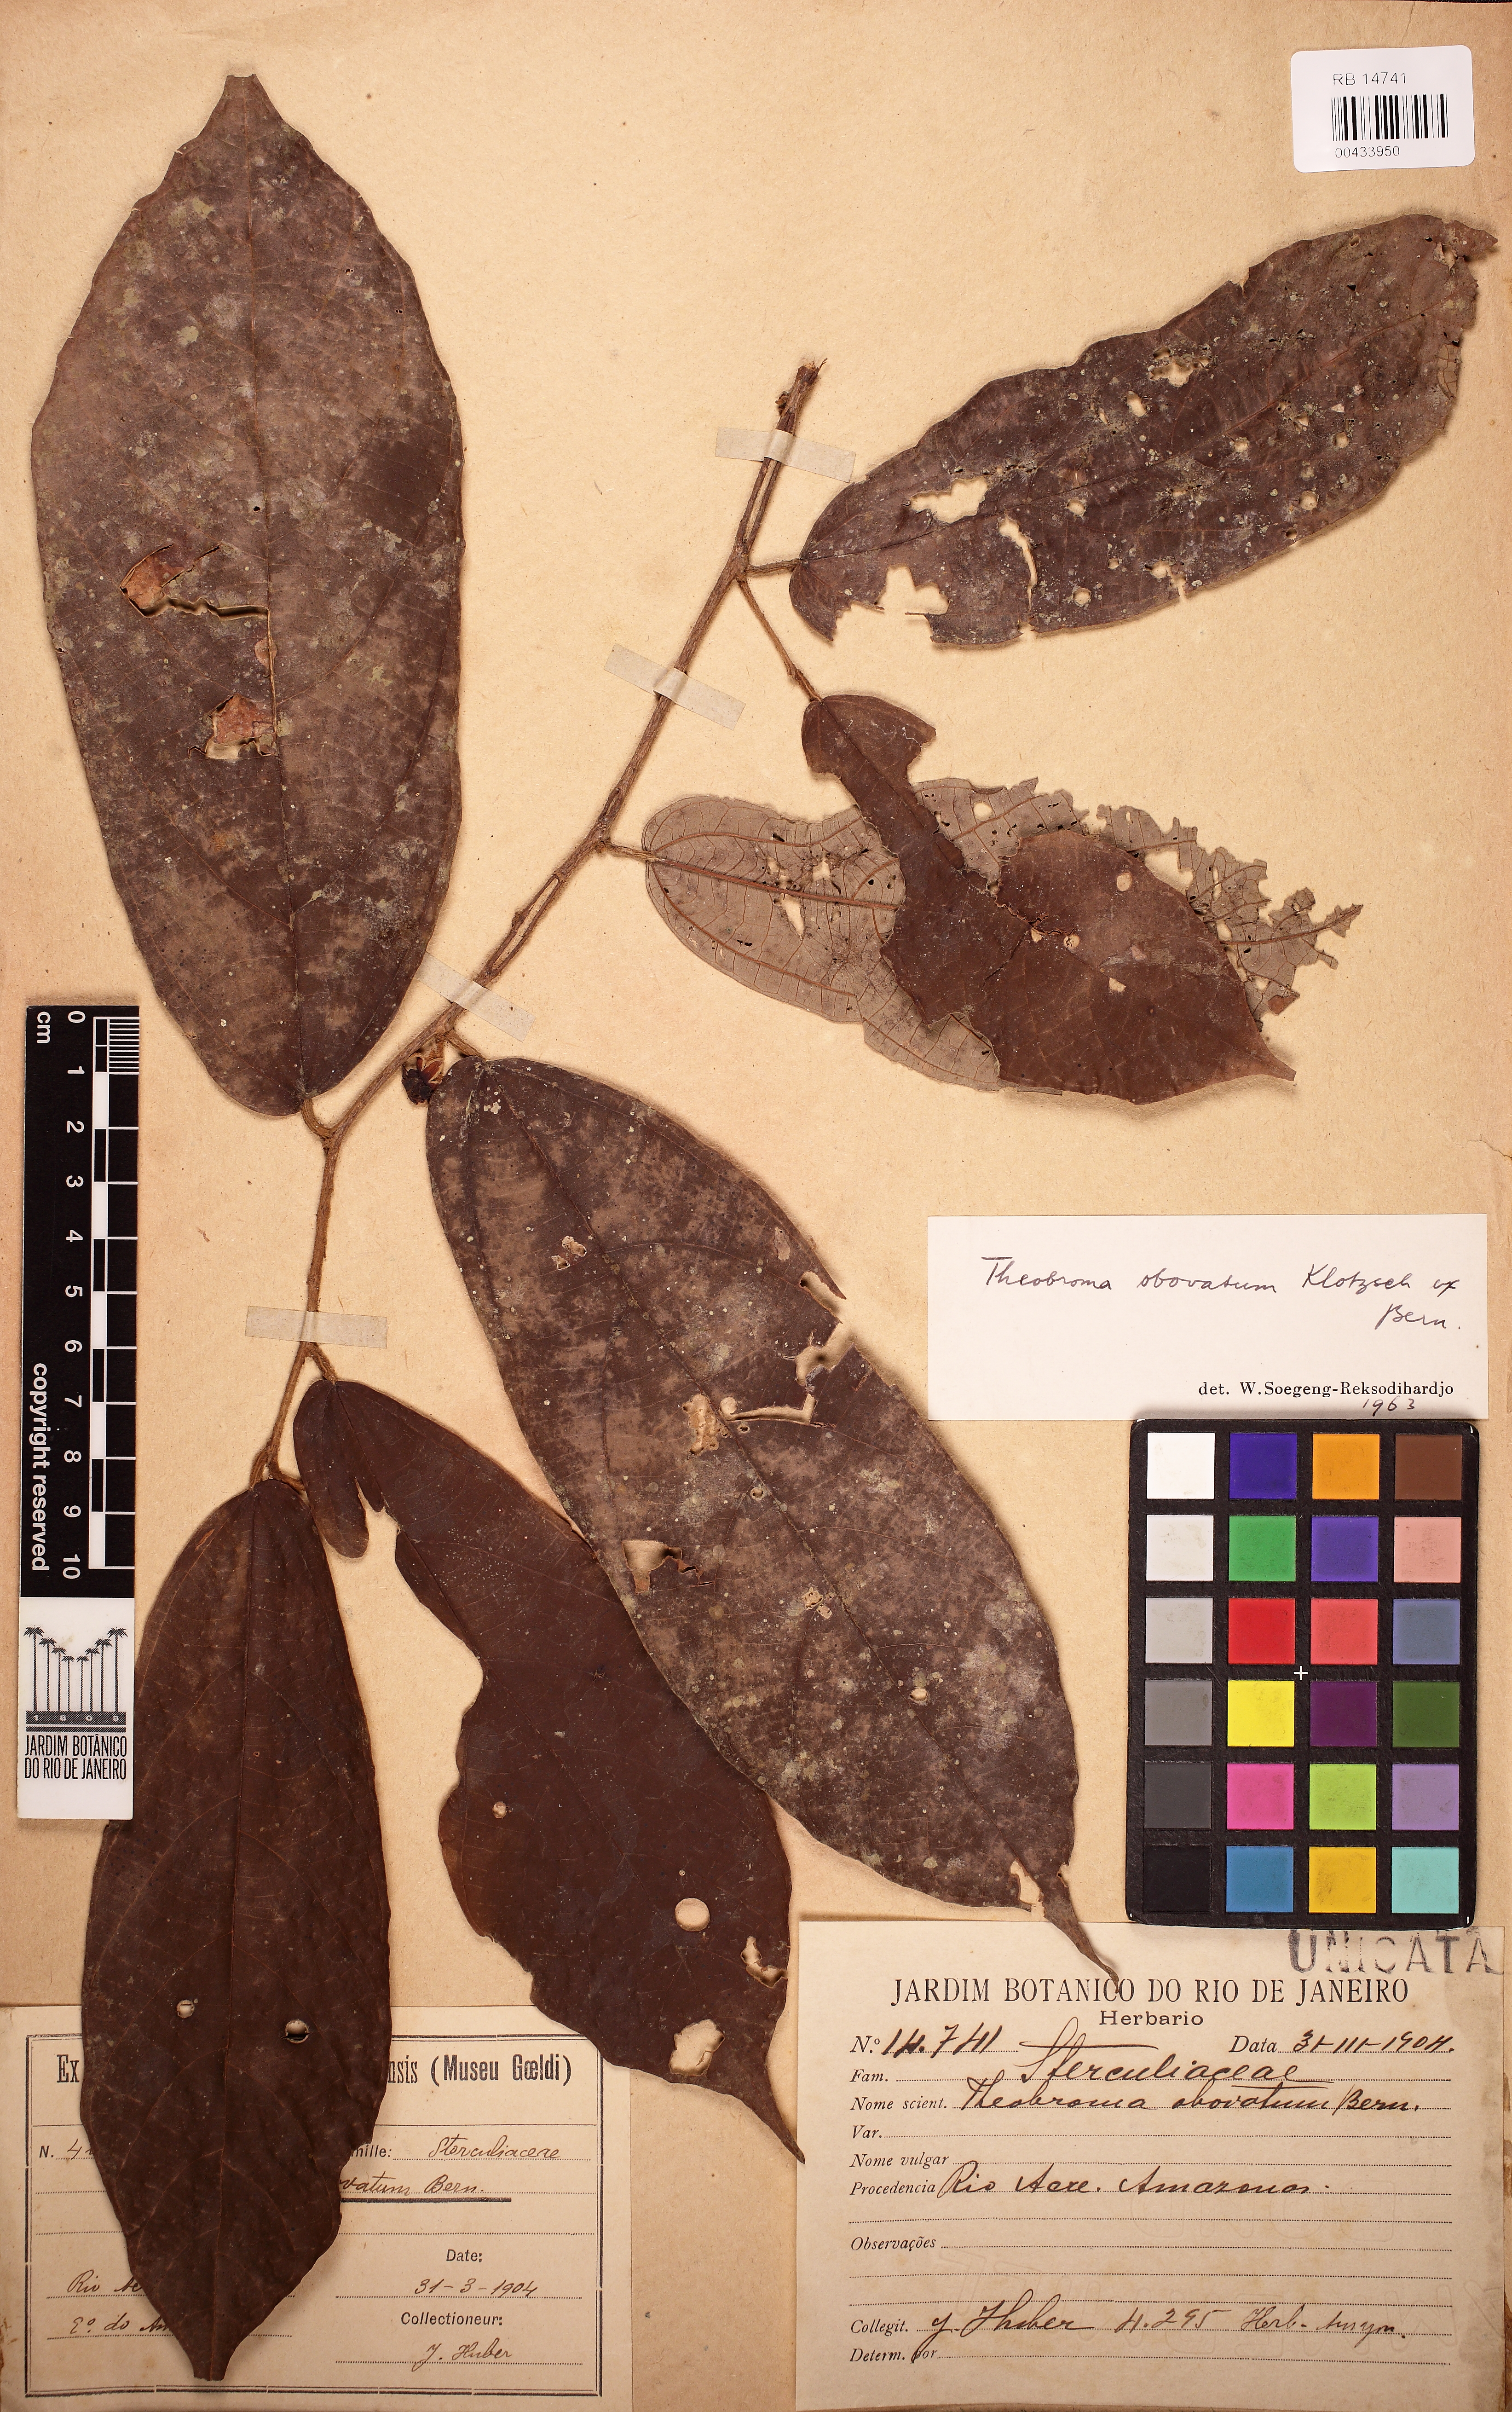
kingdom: Plantae
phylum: Tracheophyta
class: Magnoliopsida
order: Malvales
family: Malvaceae
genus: Theobroma
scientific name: Theobroma obovatum
